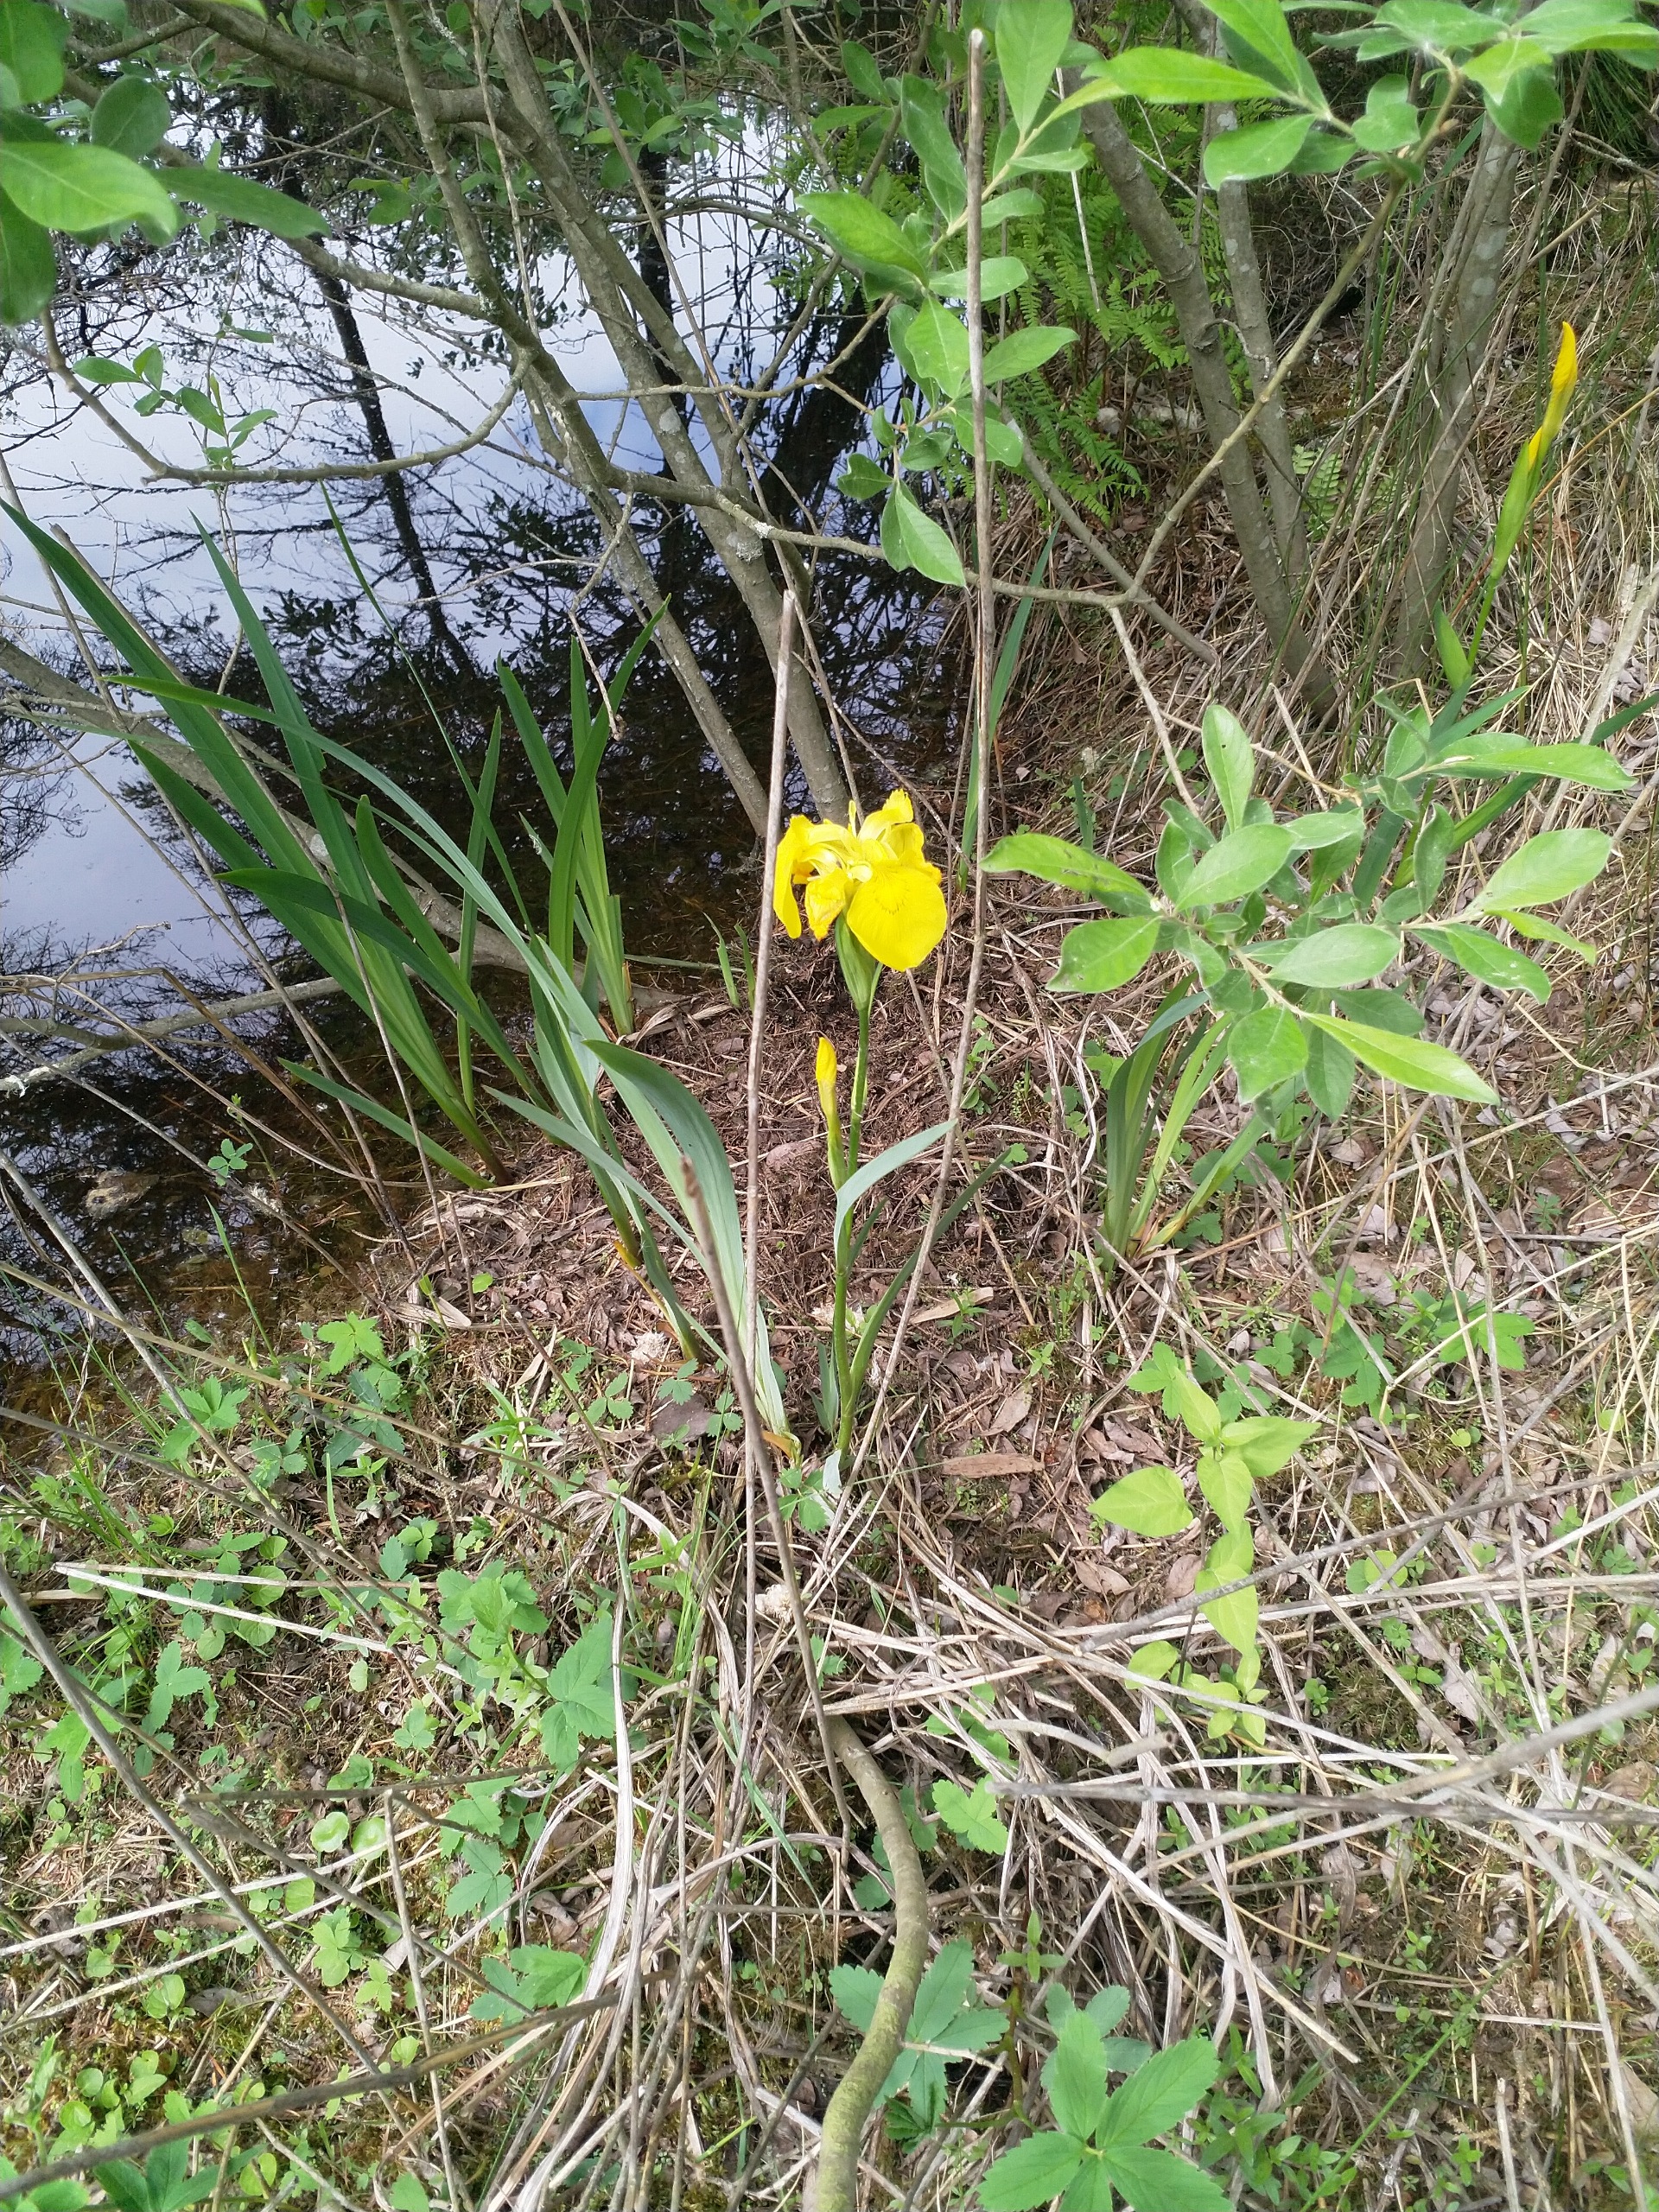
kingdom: Plantae
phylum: Tracheophyta
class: Liliopsida
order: Asparagales
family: Iridaceae
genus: Iris
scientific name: Iris pseudacorus
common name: Gul iris
